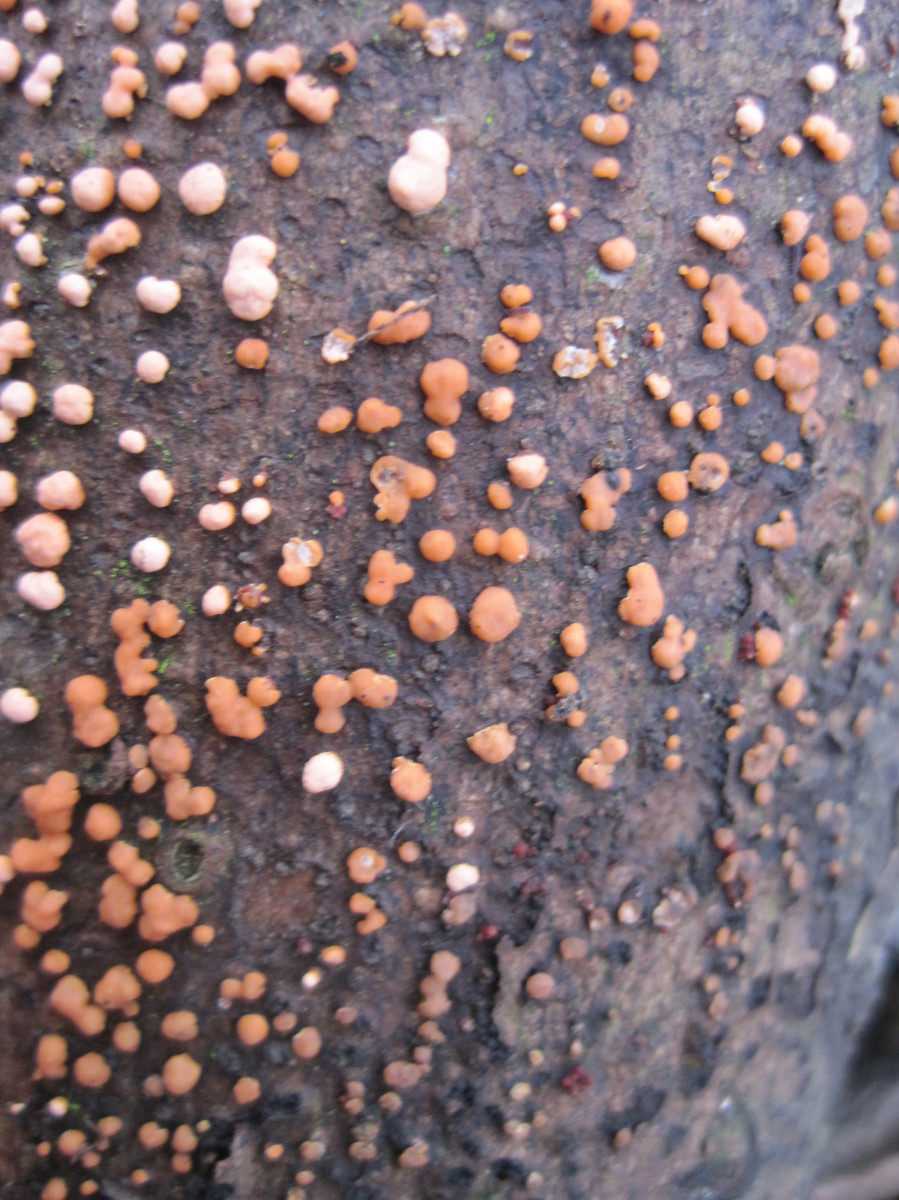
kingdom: Fungi
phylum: Ascomycota
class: Sordariomycetes
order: Hypocreales
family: Nectriaceae
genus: Nectria
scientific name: Nectria cinnabarina
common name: almindelig cinnobersvamp
